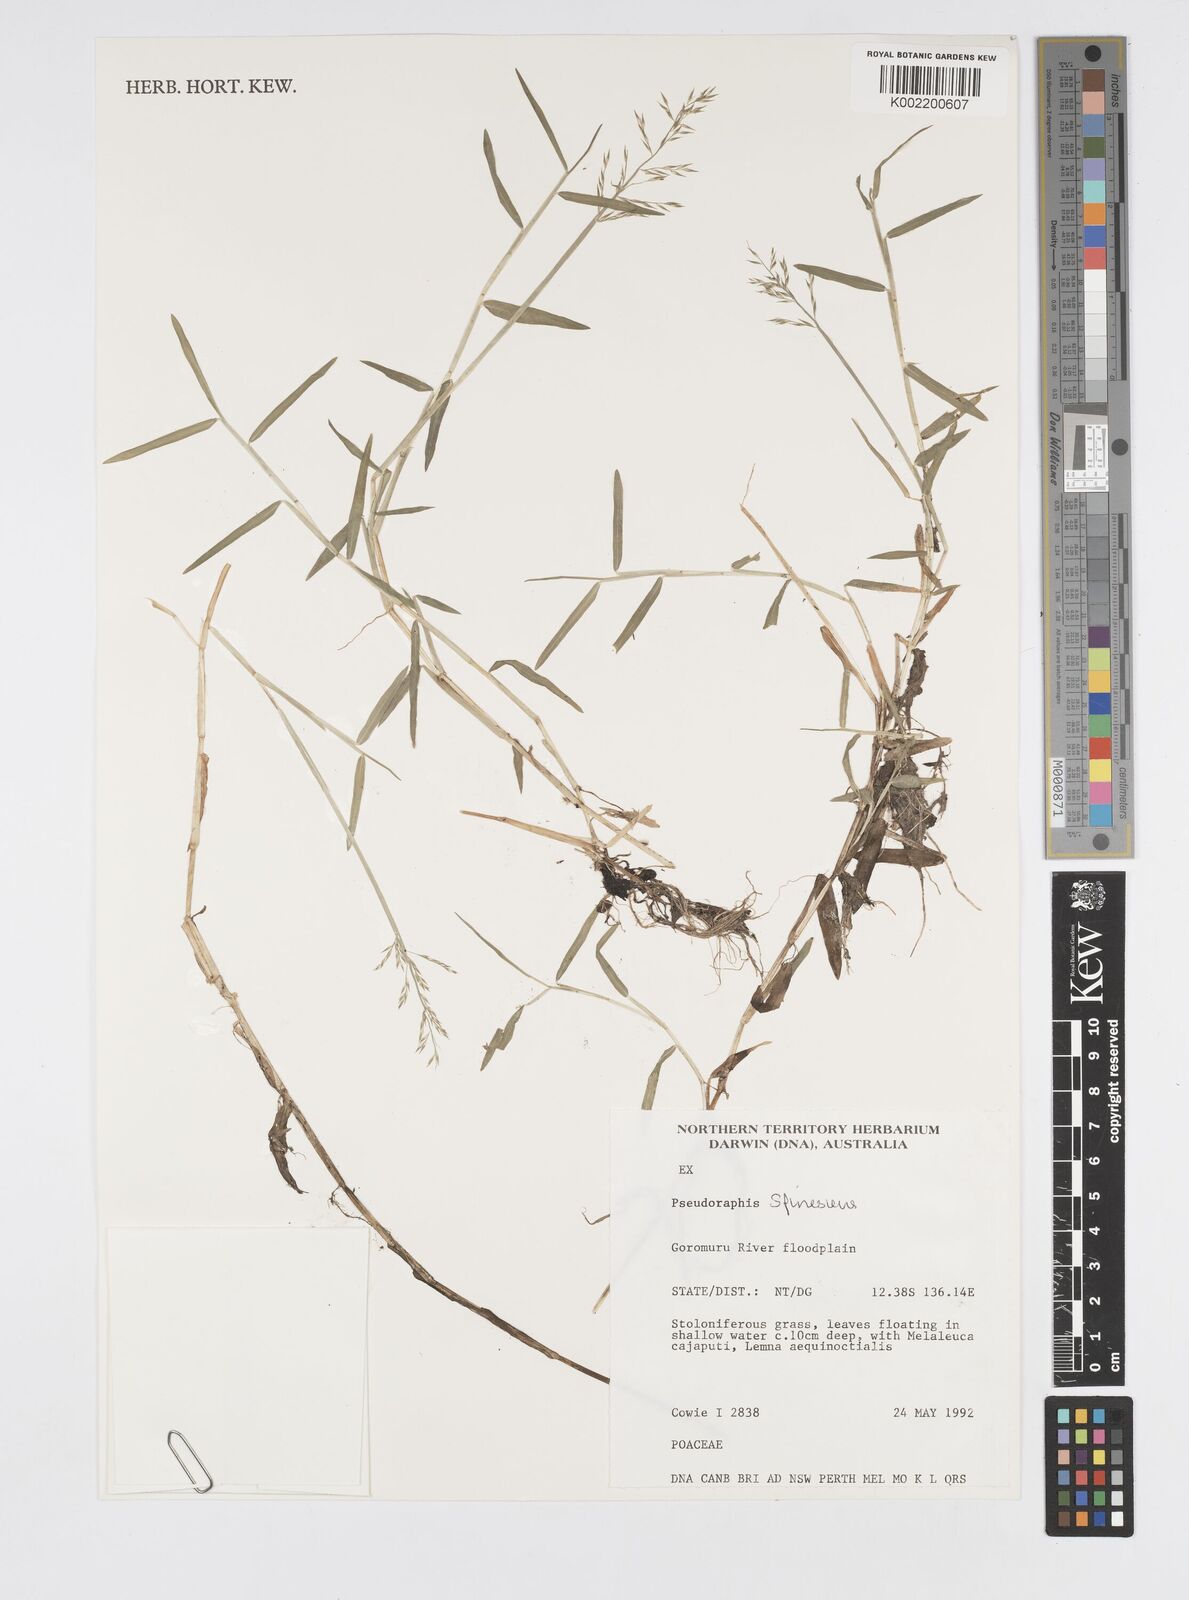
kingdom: Plantae
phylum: Tracheophyta
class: Liliopsida
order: Poales
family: Poaceae
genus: Pseudoraphis
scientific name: Pseudoraphis
